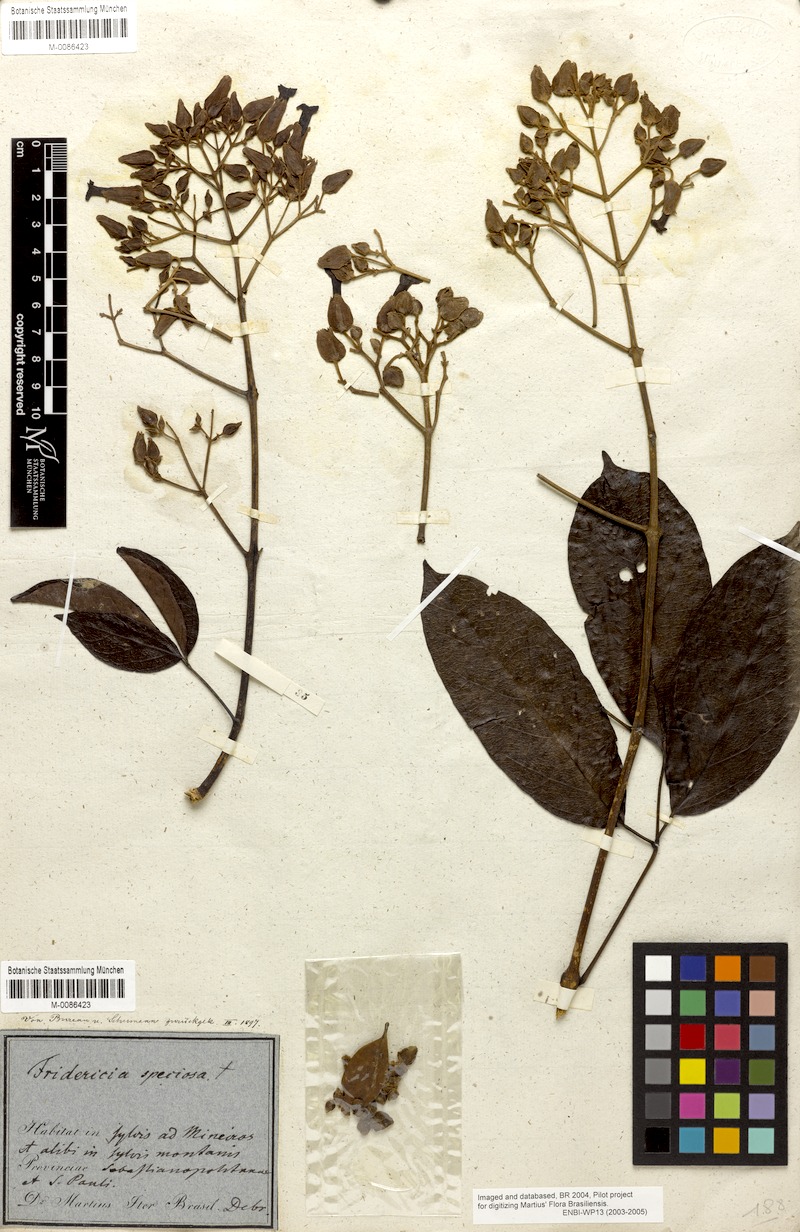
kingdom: Plantae
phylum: Tracheophyta
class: Magnoliopsida
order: Lamiales
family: Bignoniaceae
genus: Fridericia
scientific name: Fridericia speciosa
